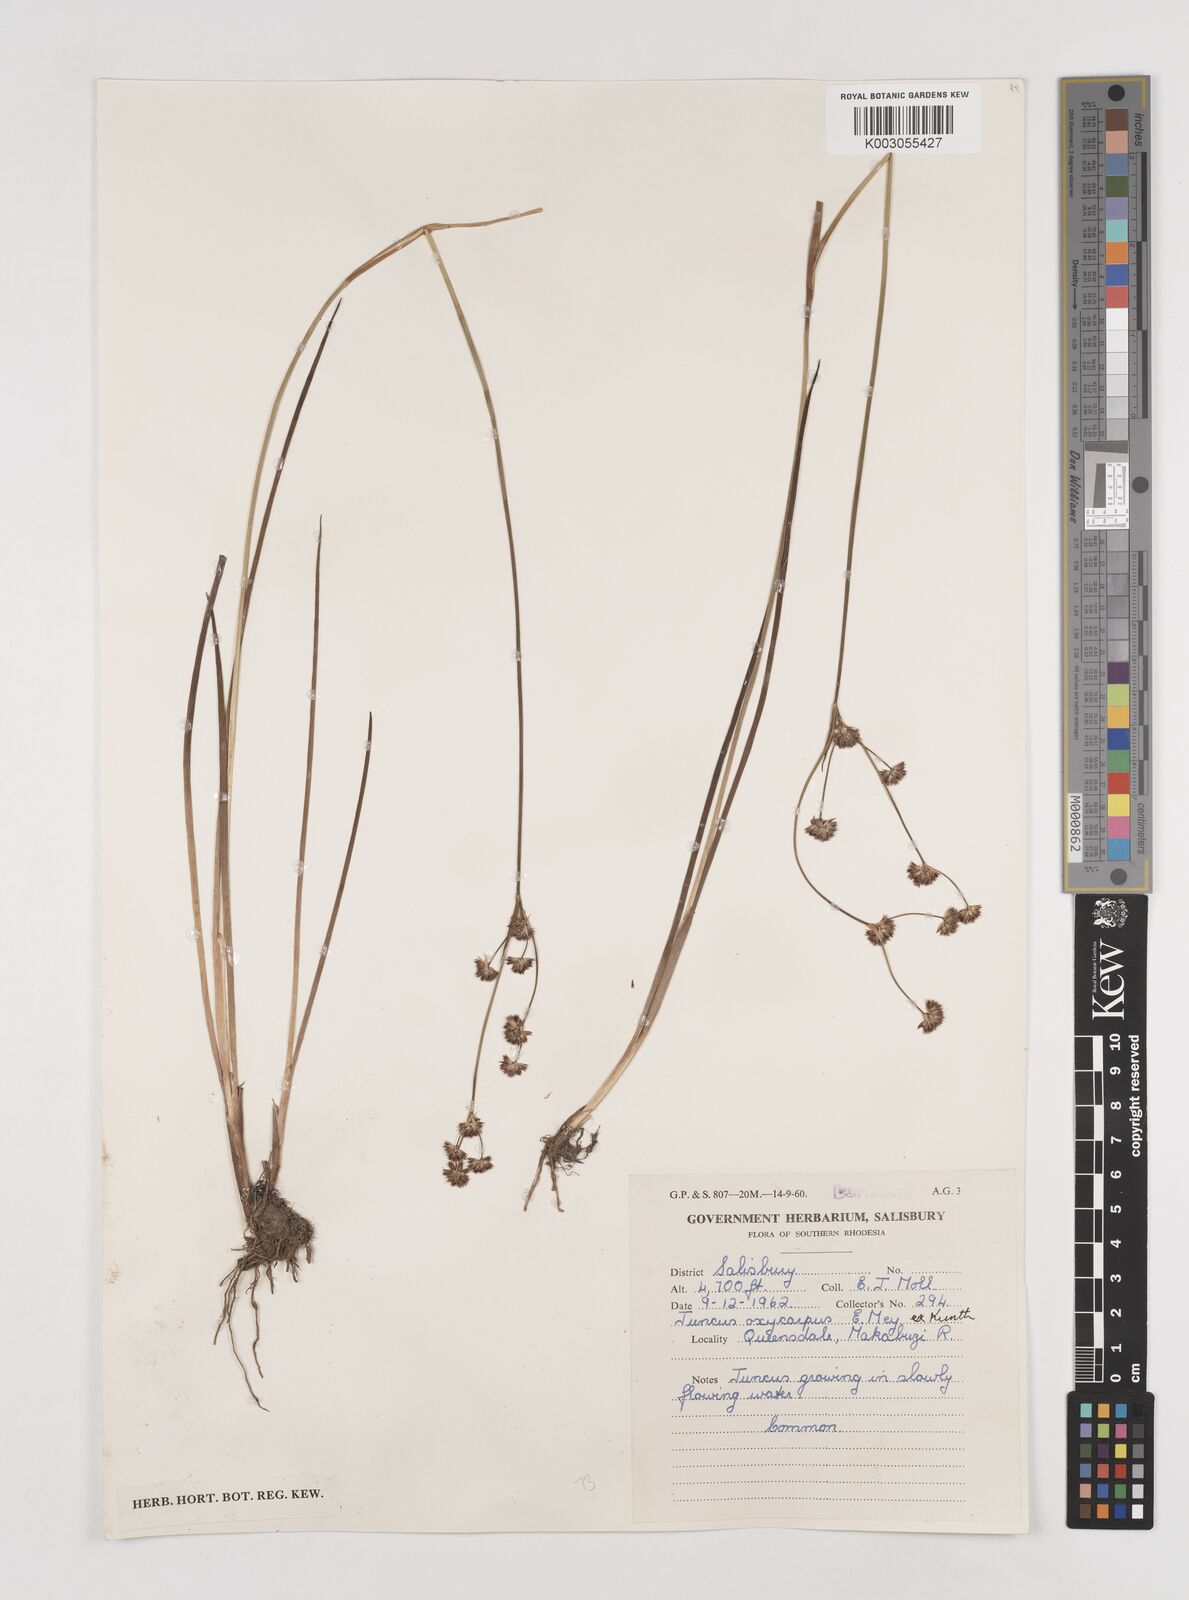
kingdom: Plantae
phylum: Tracheophyta
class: Liliopsida
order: Poales
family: Juncaceae
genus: Juncus
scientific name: Juncus oxycarpus
